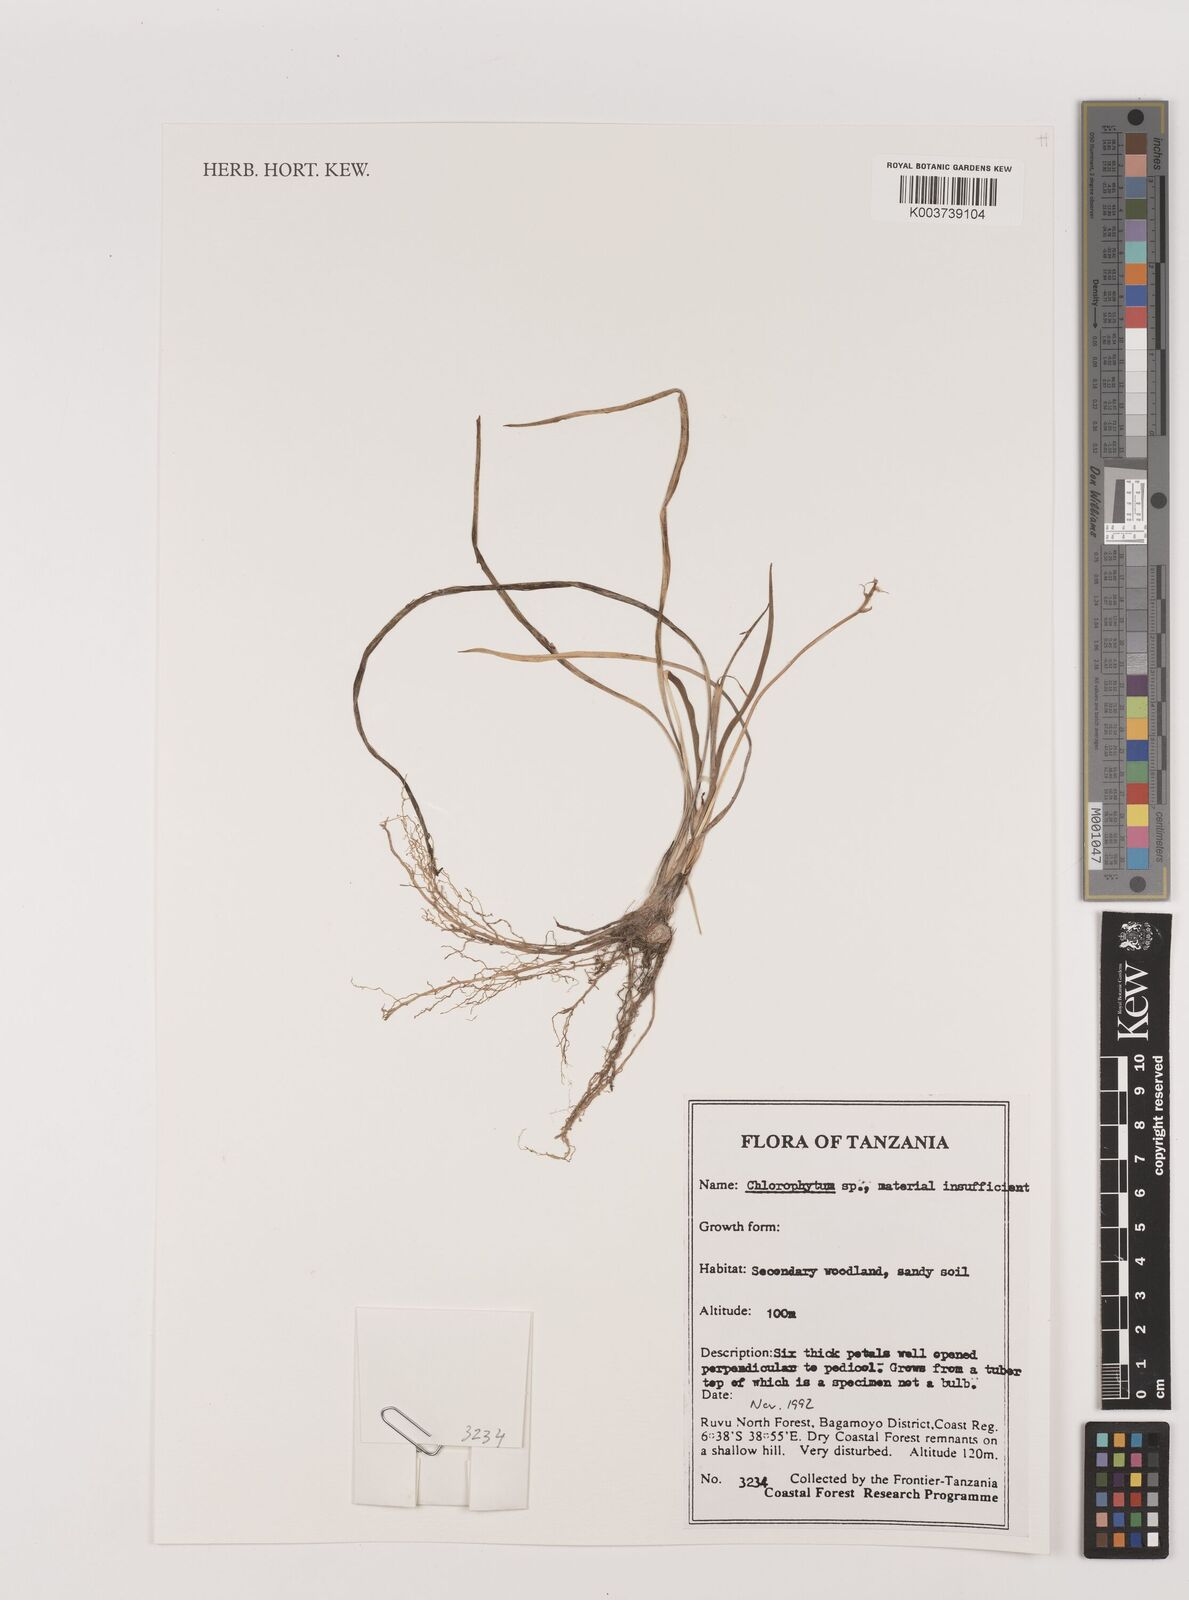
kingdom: Plantae
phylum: Tracheophyta
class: Liliopsida
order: Asparagales
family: Asparagaceae
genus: Chlorophytum
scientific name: Chlorophytum
